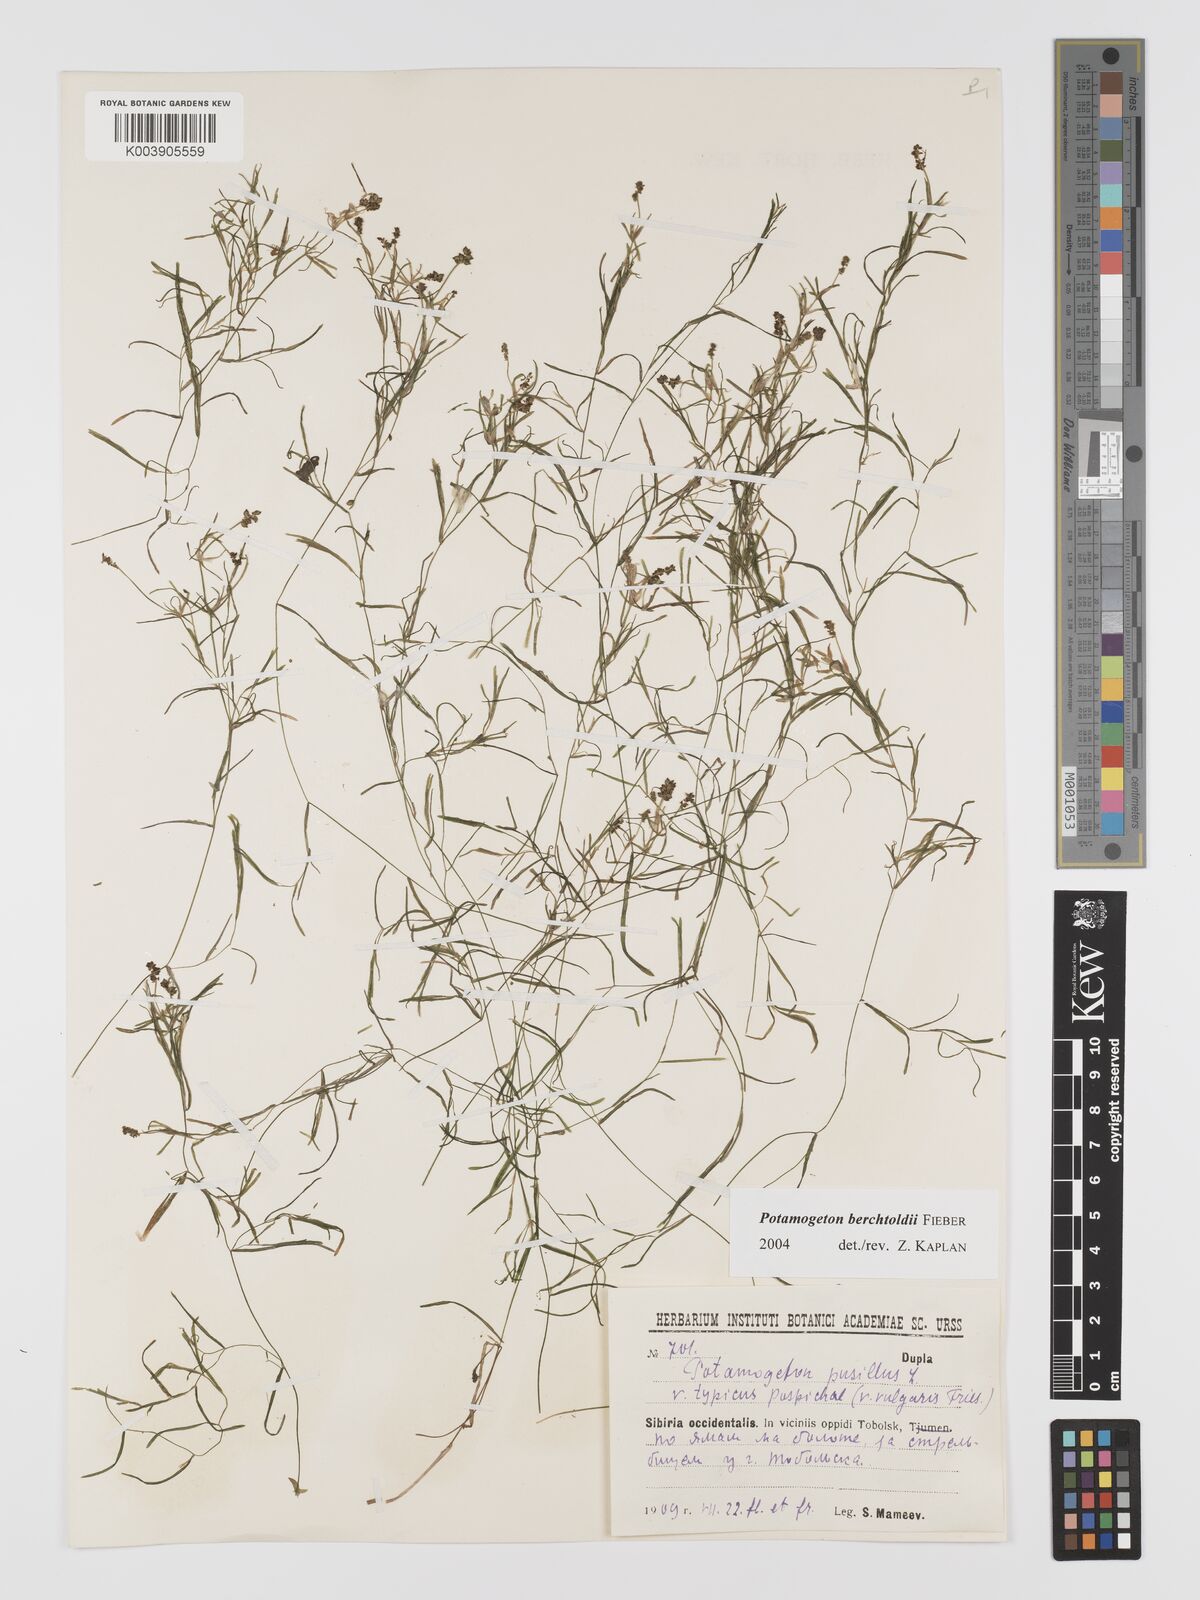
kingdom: Plantae
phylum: Tracheophyta
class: Liliopsida
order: Alismatales
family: Potamogetonaceae
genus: Potamogeton
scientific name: Potamogeton berchtoldii
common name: Small pondweed
